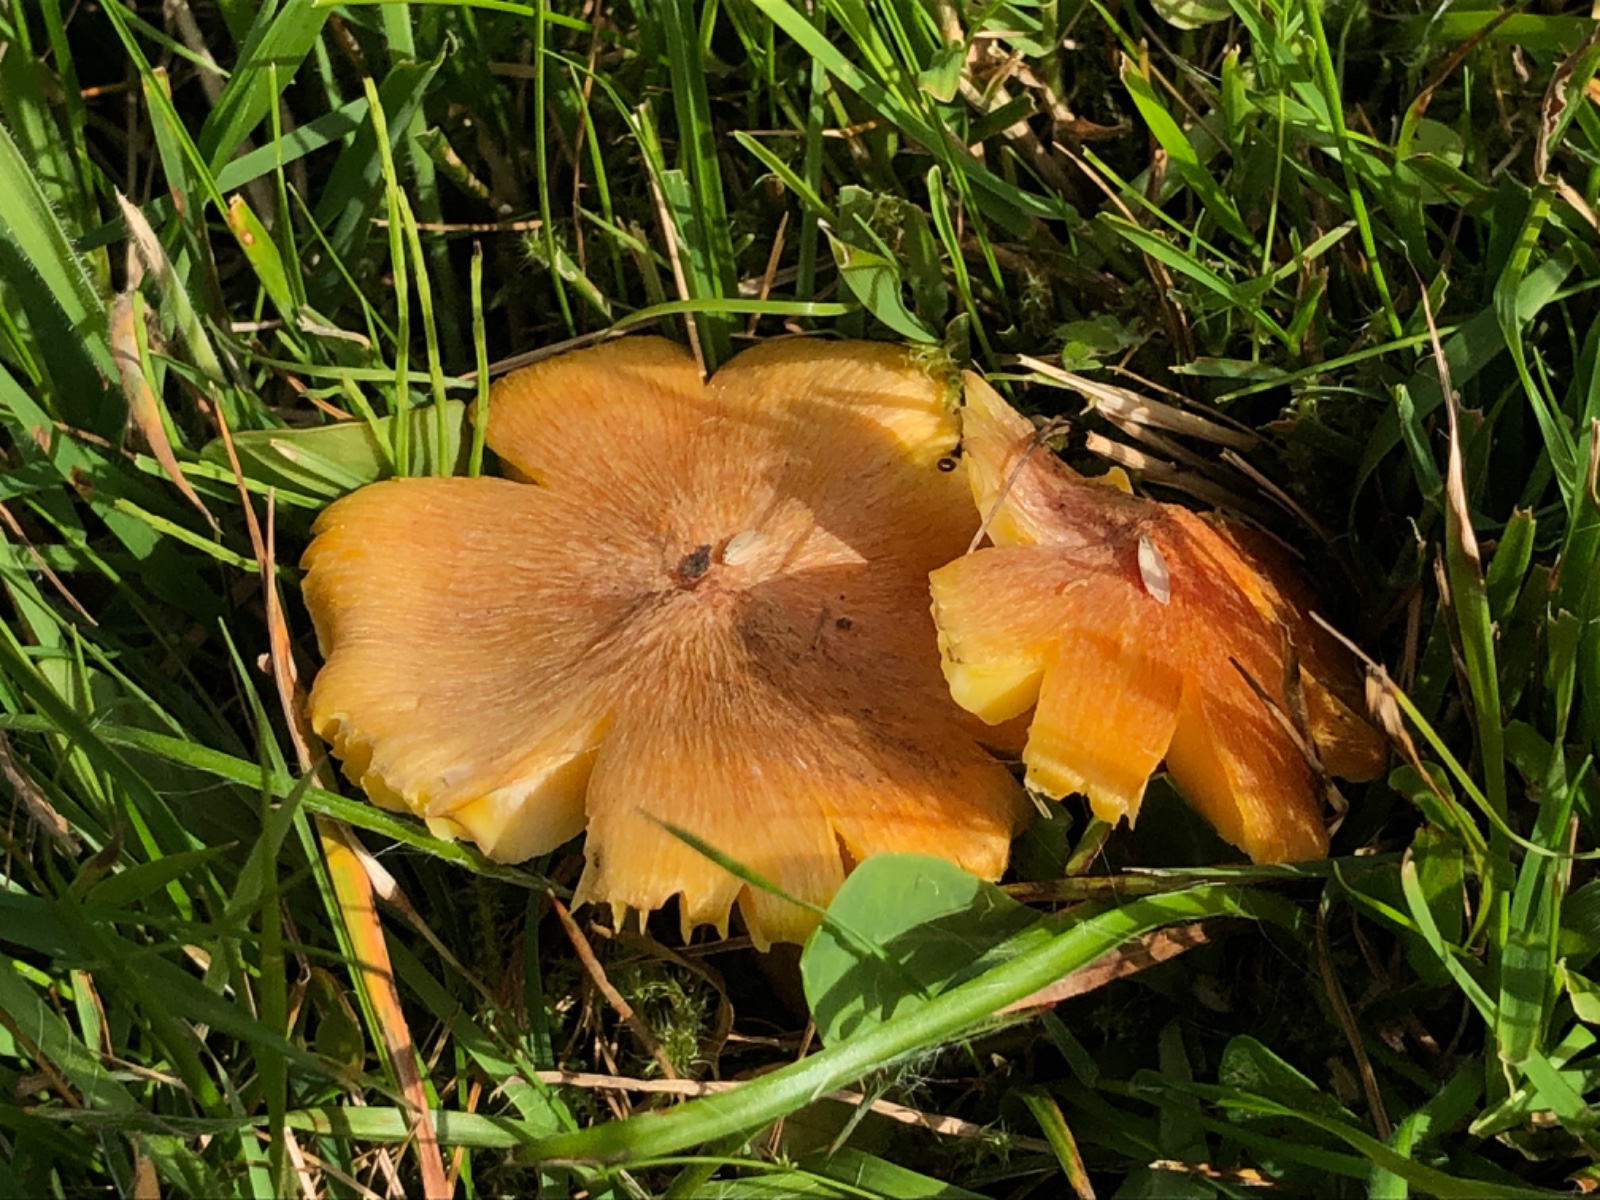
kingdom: Fungi
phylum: Basidiomycota
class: Agaricomycetes
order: Agaricales
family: Hygrophoraceae
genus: Hygrocybe
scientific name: Hygrocybe intermedia
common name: trævlet vokshat
